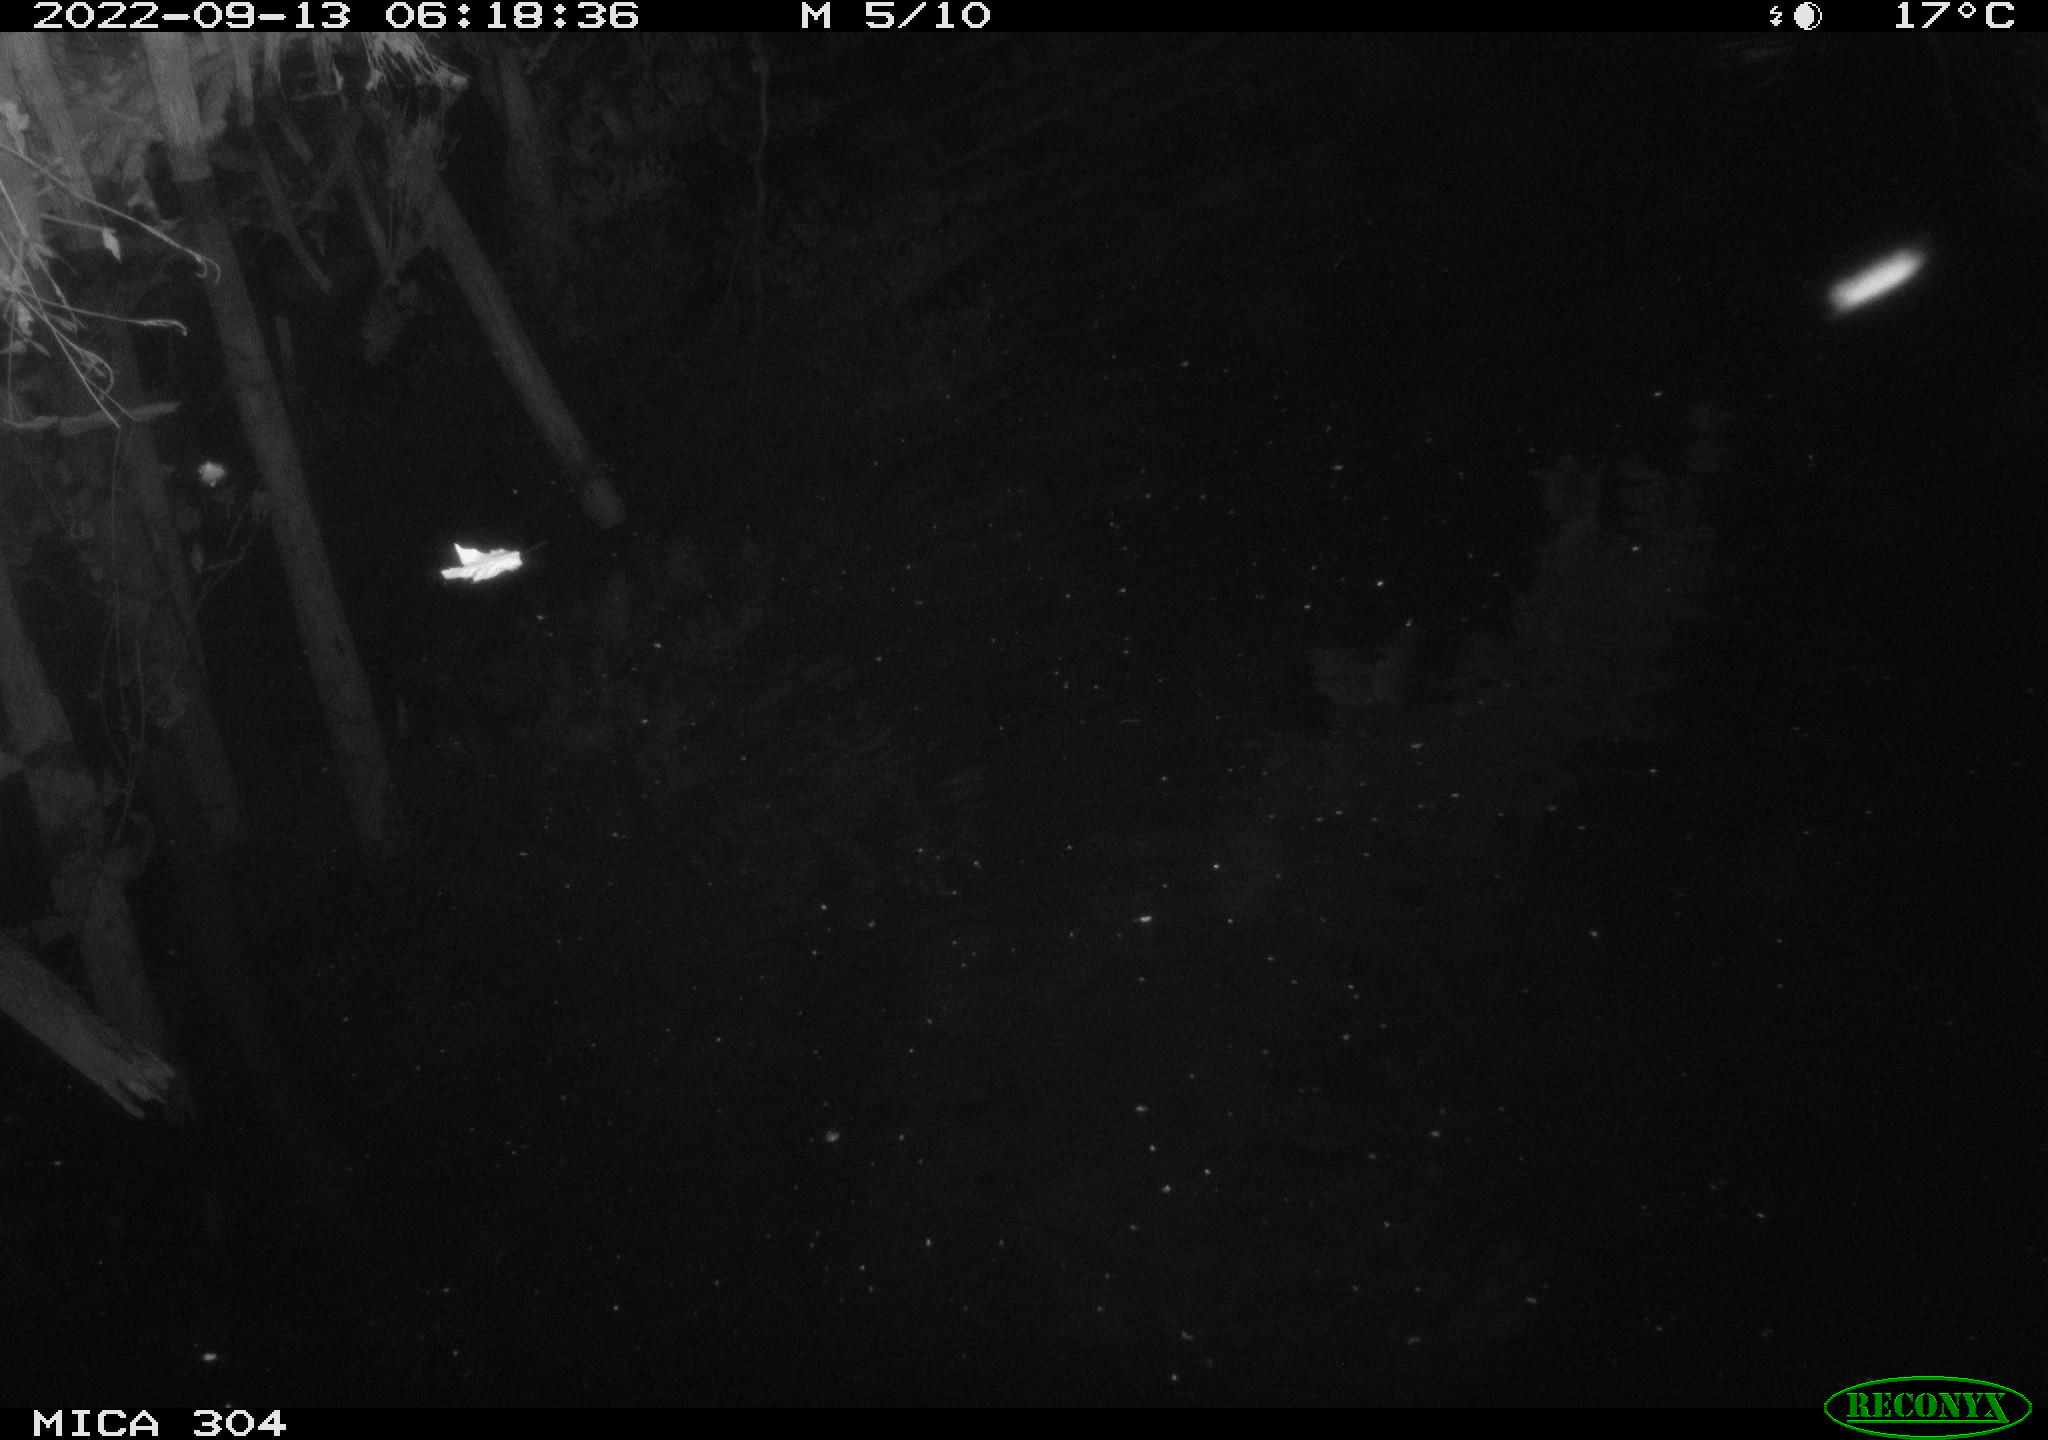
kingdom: Animalia
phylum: Chordata
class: Mammalia
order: Rodentia
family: Muridae
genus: Rattus
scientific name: Rattus norvegicus
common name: Brown rat
